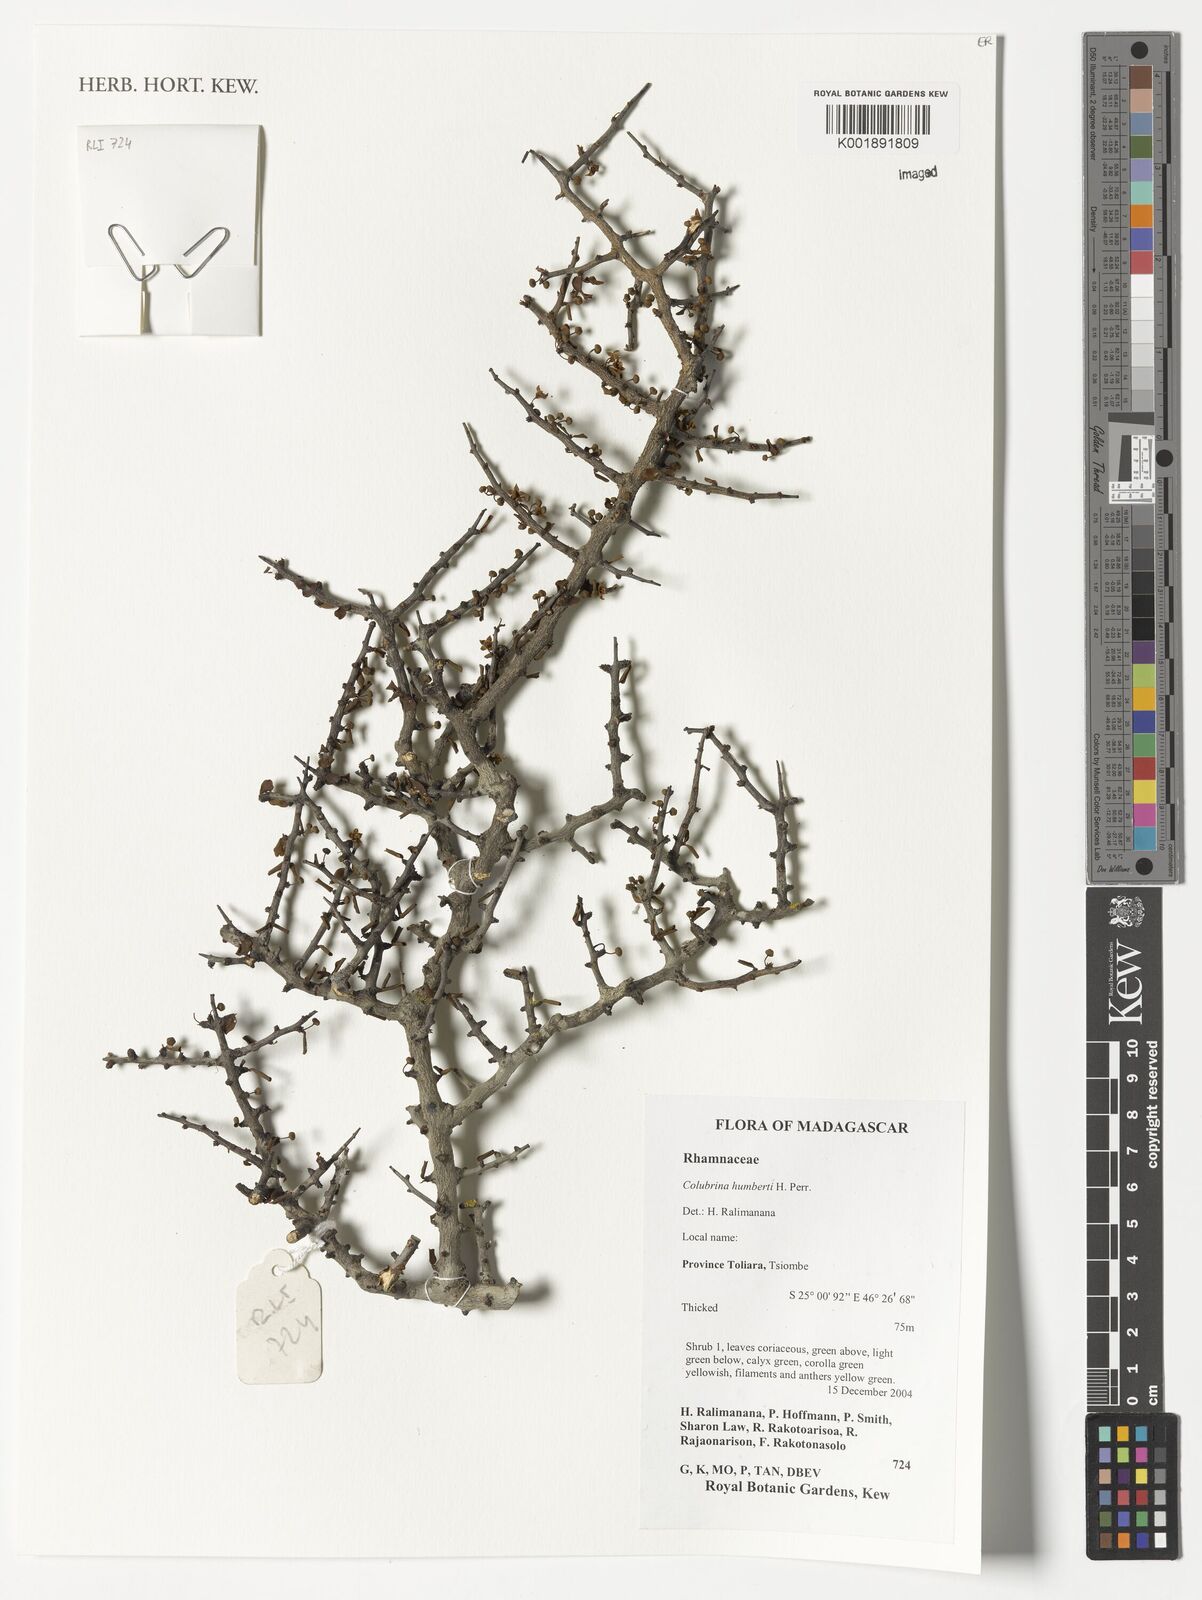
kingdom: Plantae
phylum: Tracheophyta
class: Magnoliopsida
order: Rosales
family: Rhamnaceae
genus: Colubrina
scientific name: Colubrina humbertii
